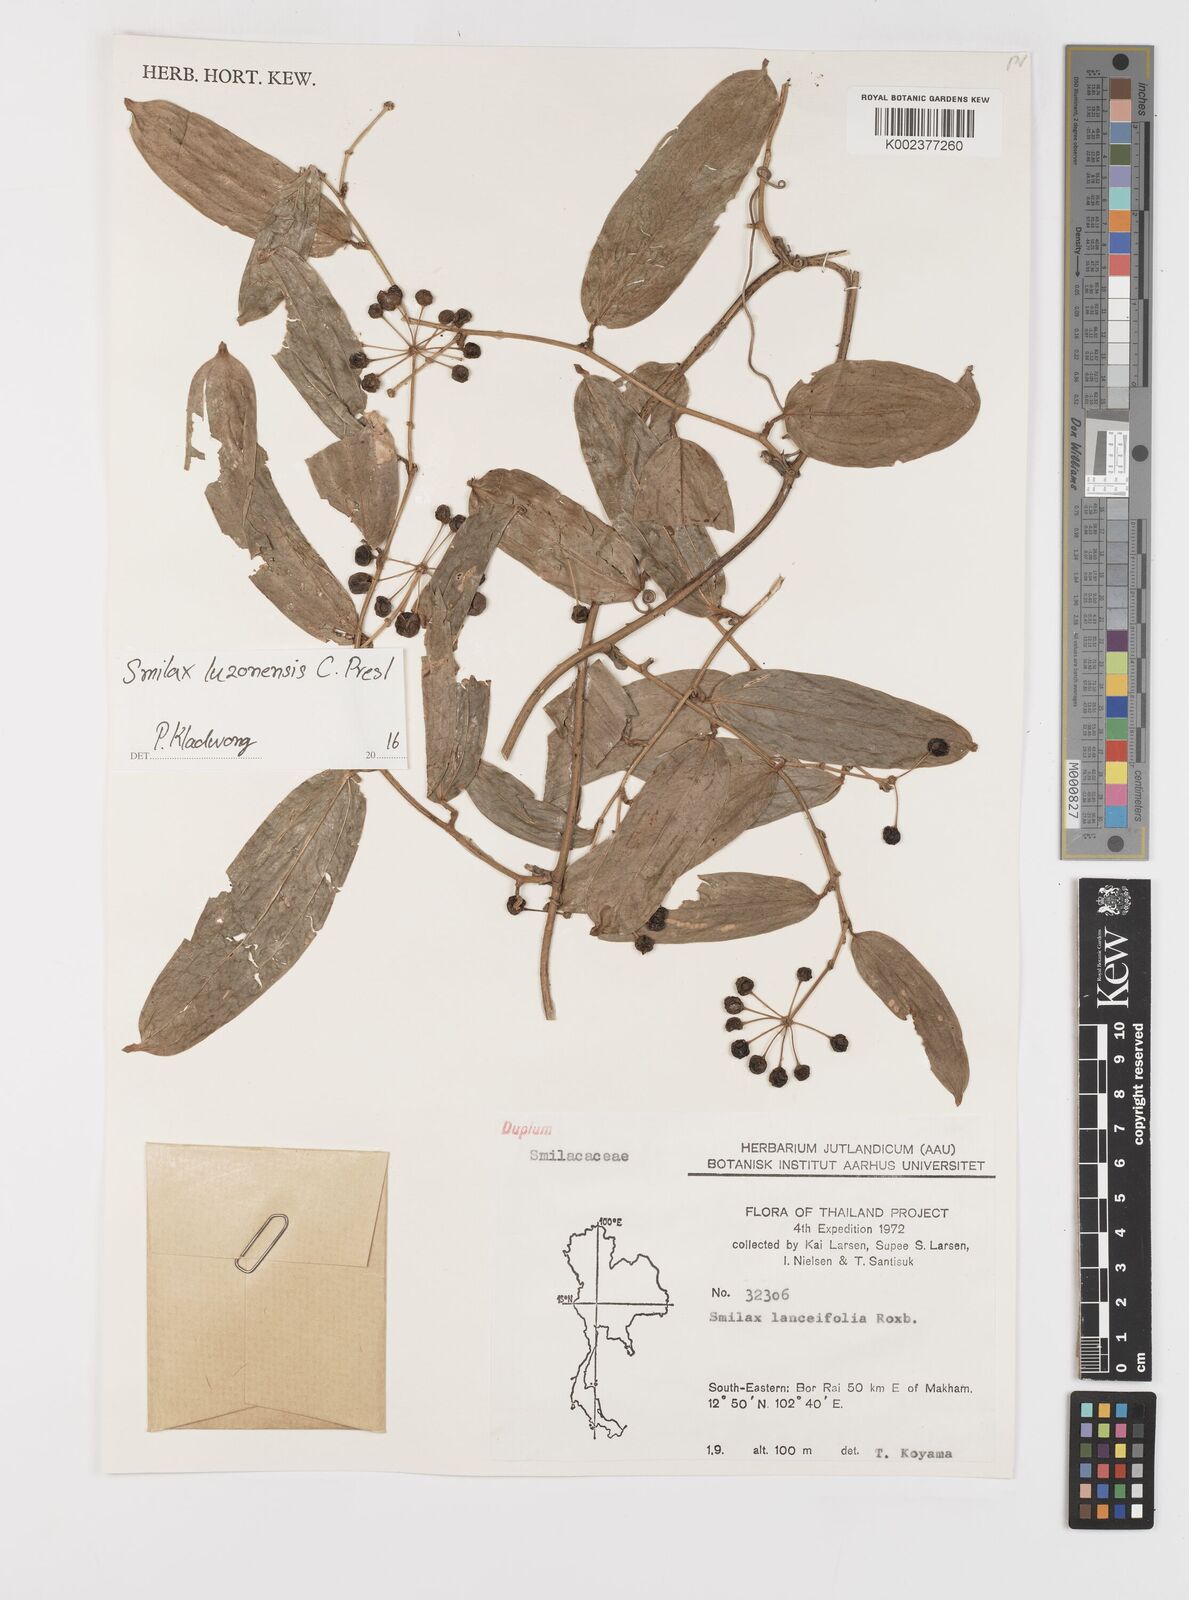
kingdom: Plantae
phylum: Tracheophyta
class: Liliopsida
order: Liliales
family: Smilacaceae
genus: Smilax
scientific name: Smilax luzonensis
